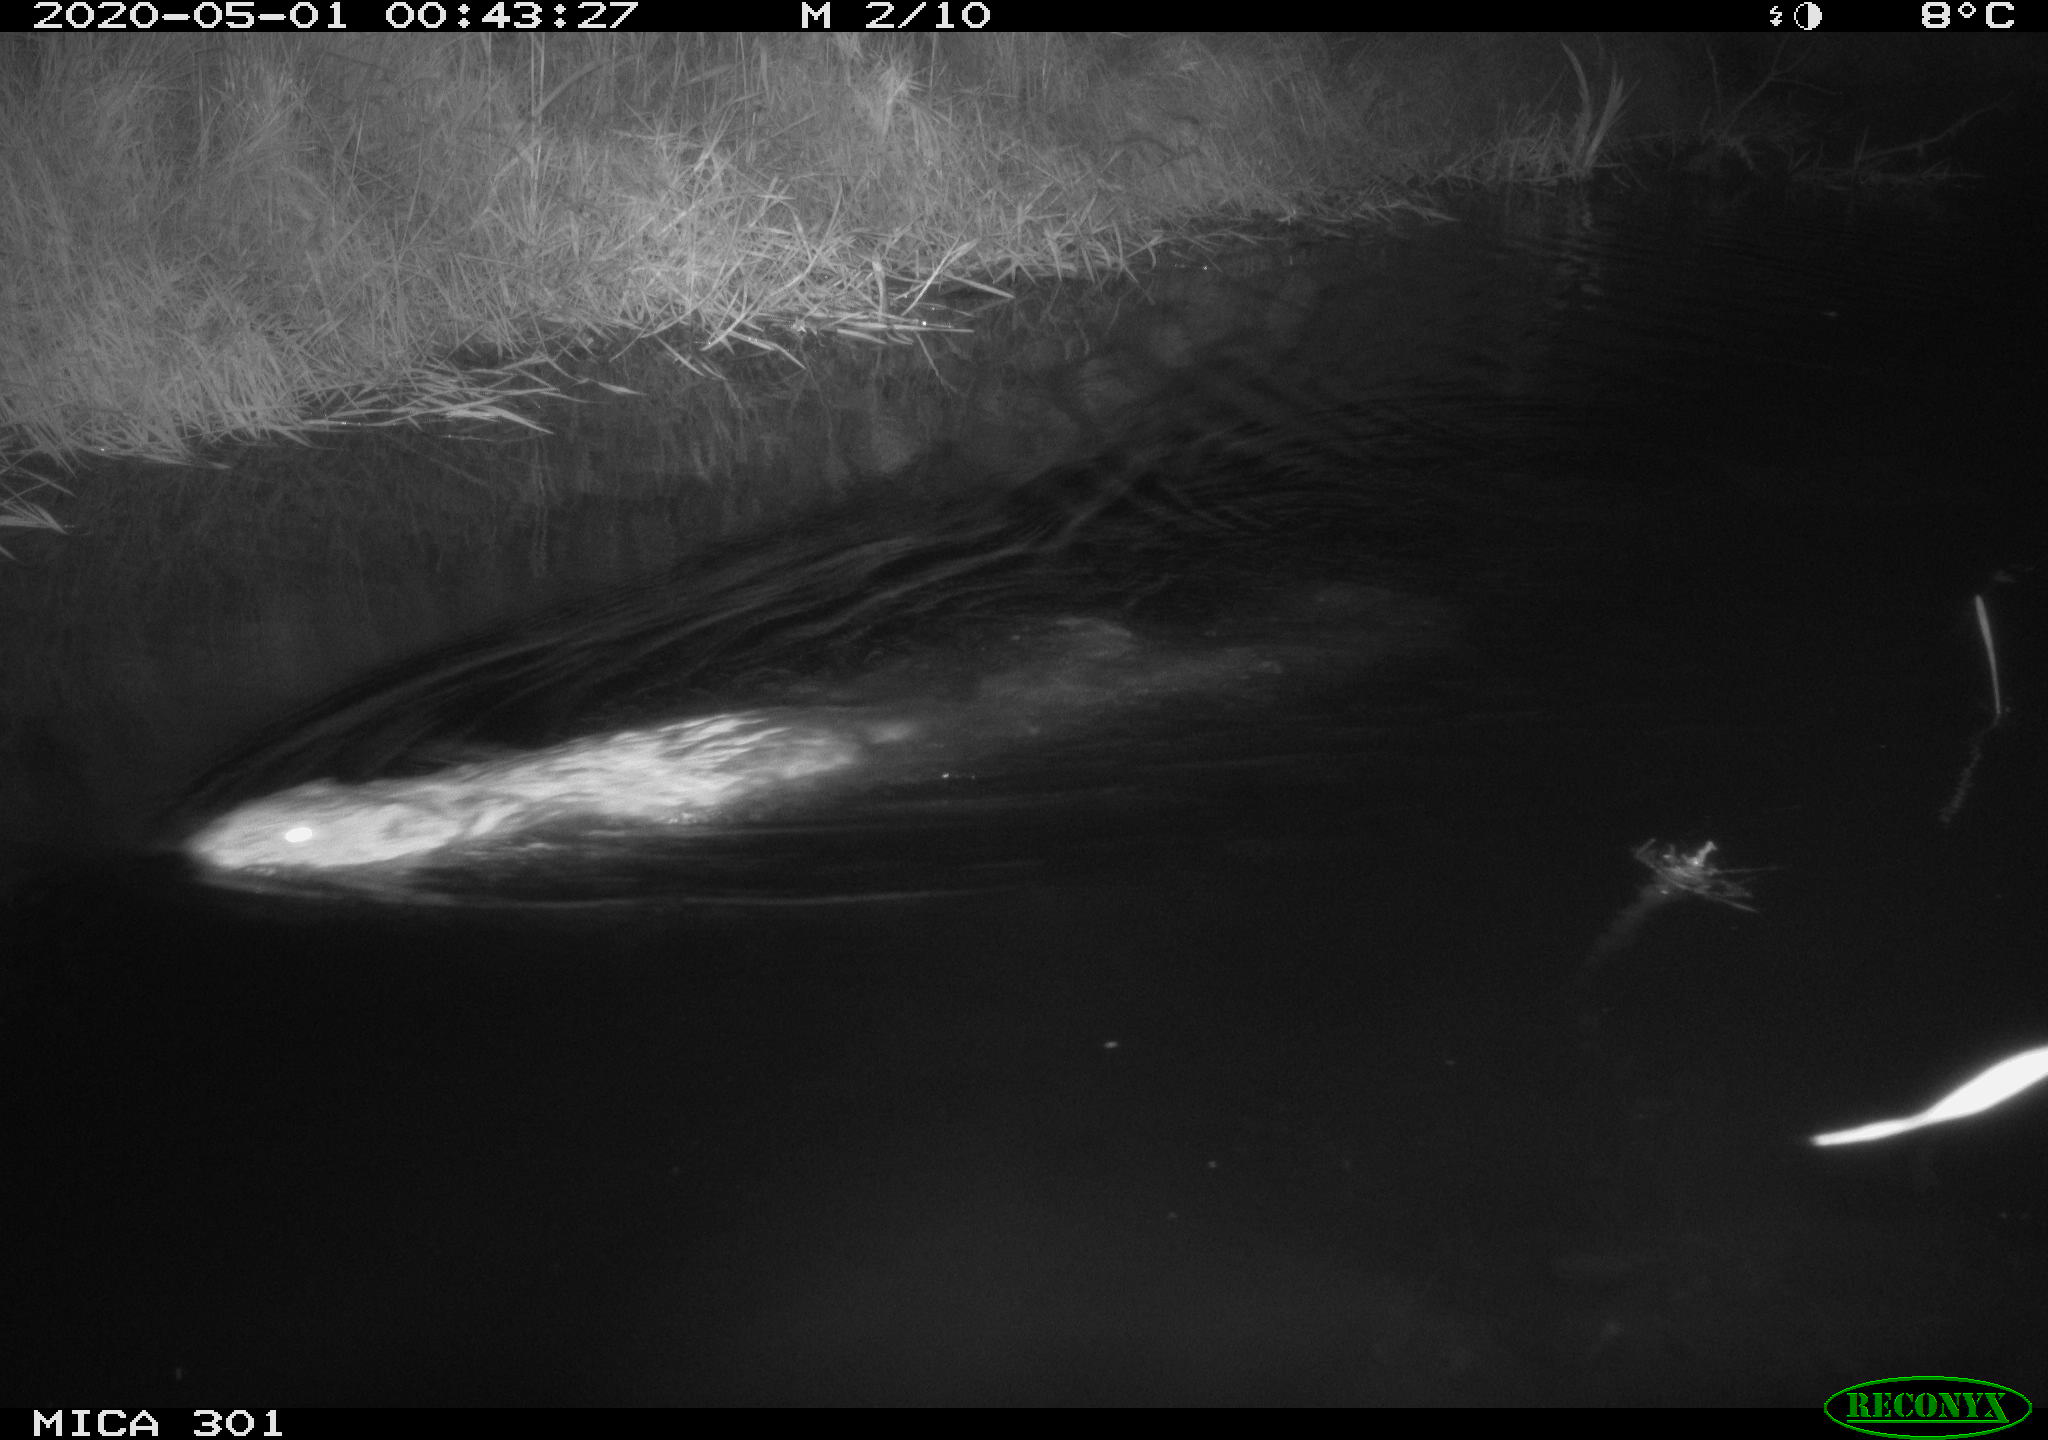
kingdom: Animalia
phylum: Chordata
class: Mammalia
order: Rodentia
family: Castoridae
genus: Castor
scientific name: Castor fiber
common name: Eurasian beaver
